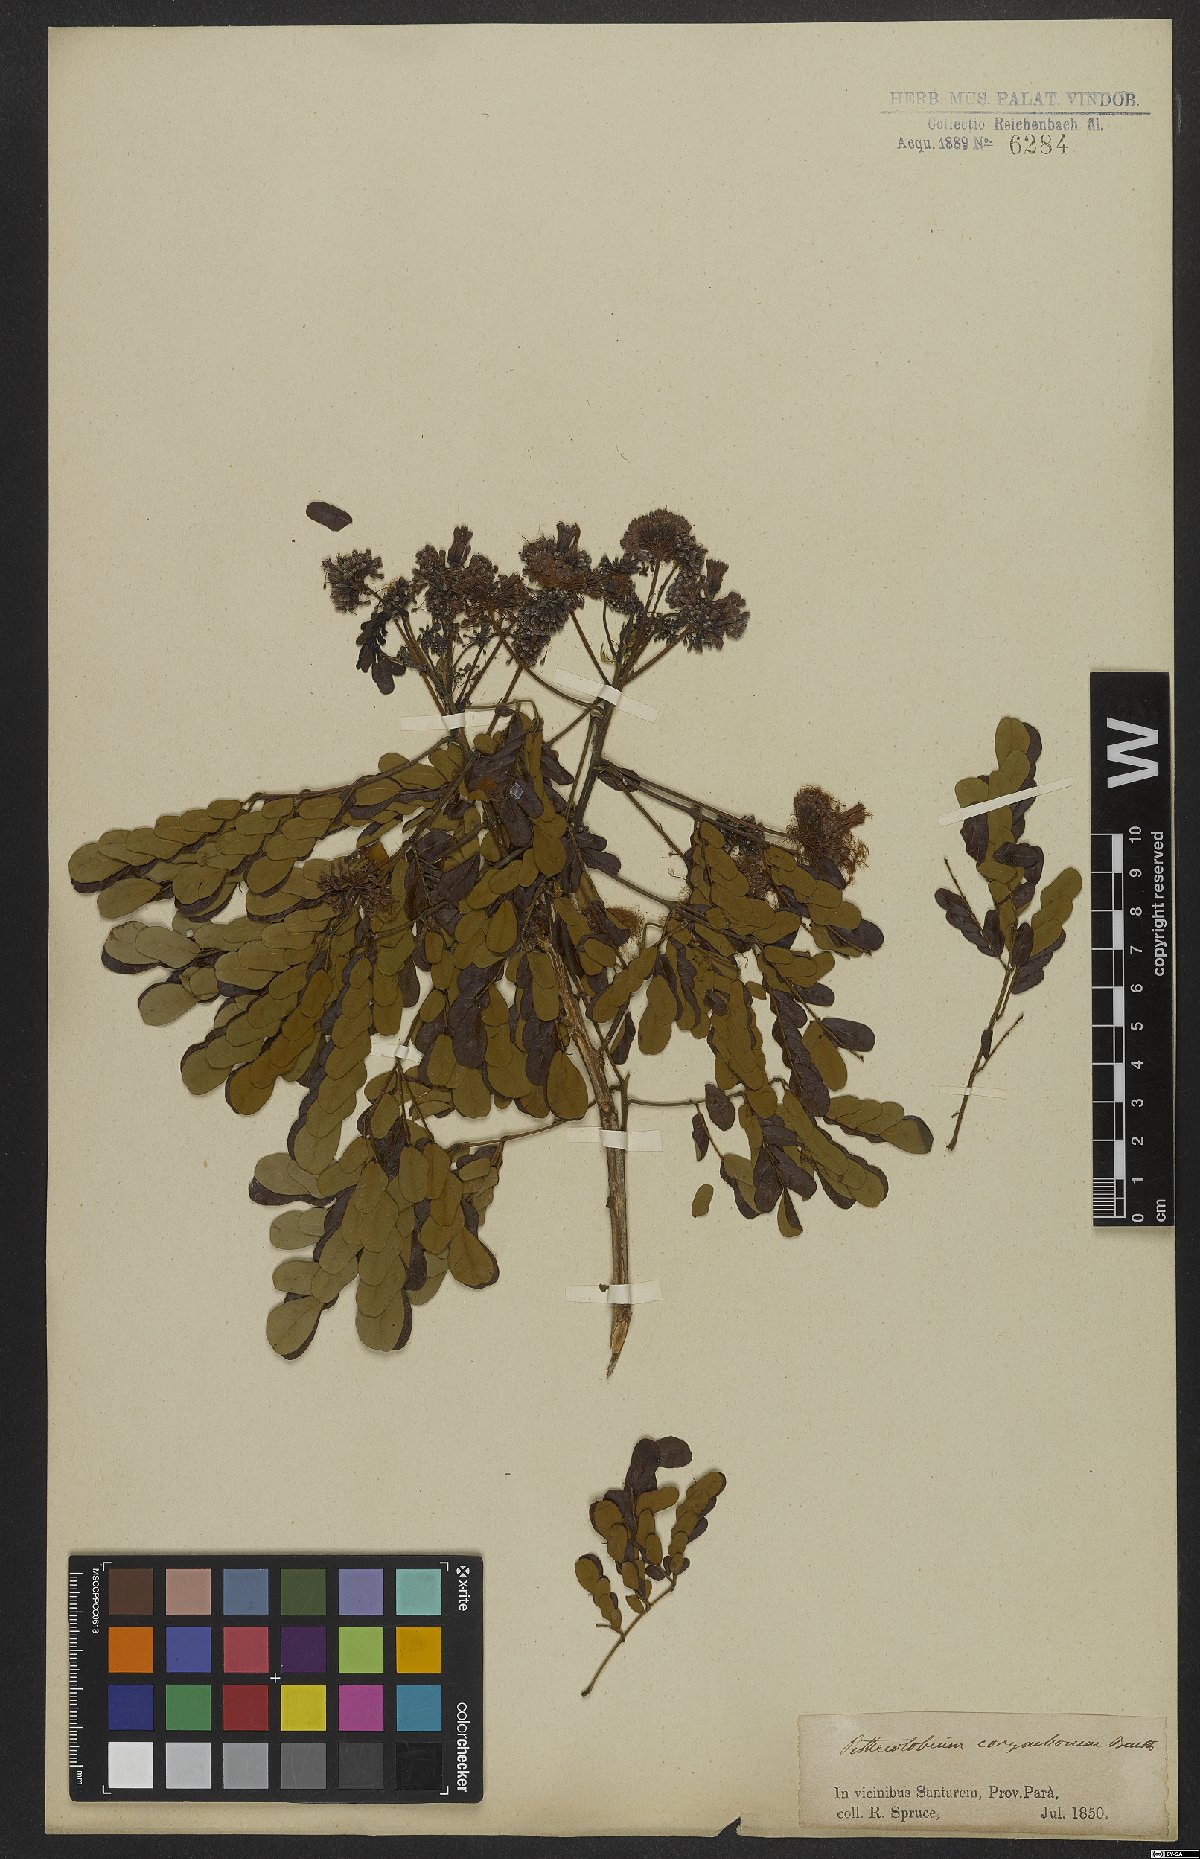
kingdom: Plantae
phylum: Tracheophyta
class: Magnoliopsida
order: Fabales
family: Fabaceae
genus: Hydrochorea
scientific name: Hydrochorea corymbosa
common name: Swamp manariballi
